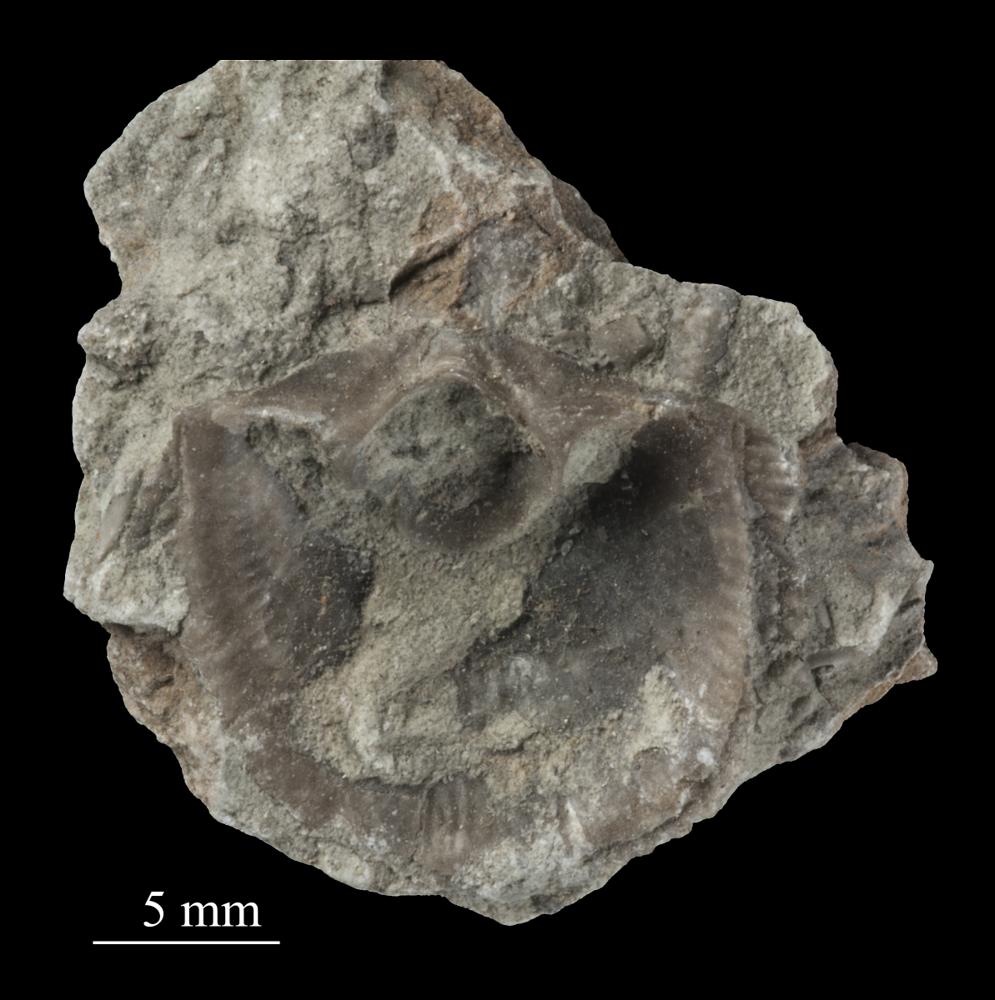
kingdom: Animalia
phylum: Brachiopoda
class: Rhynchonellata
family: Clitambonitidae
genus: Clitambonites
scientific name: Clitambonites squamatus
